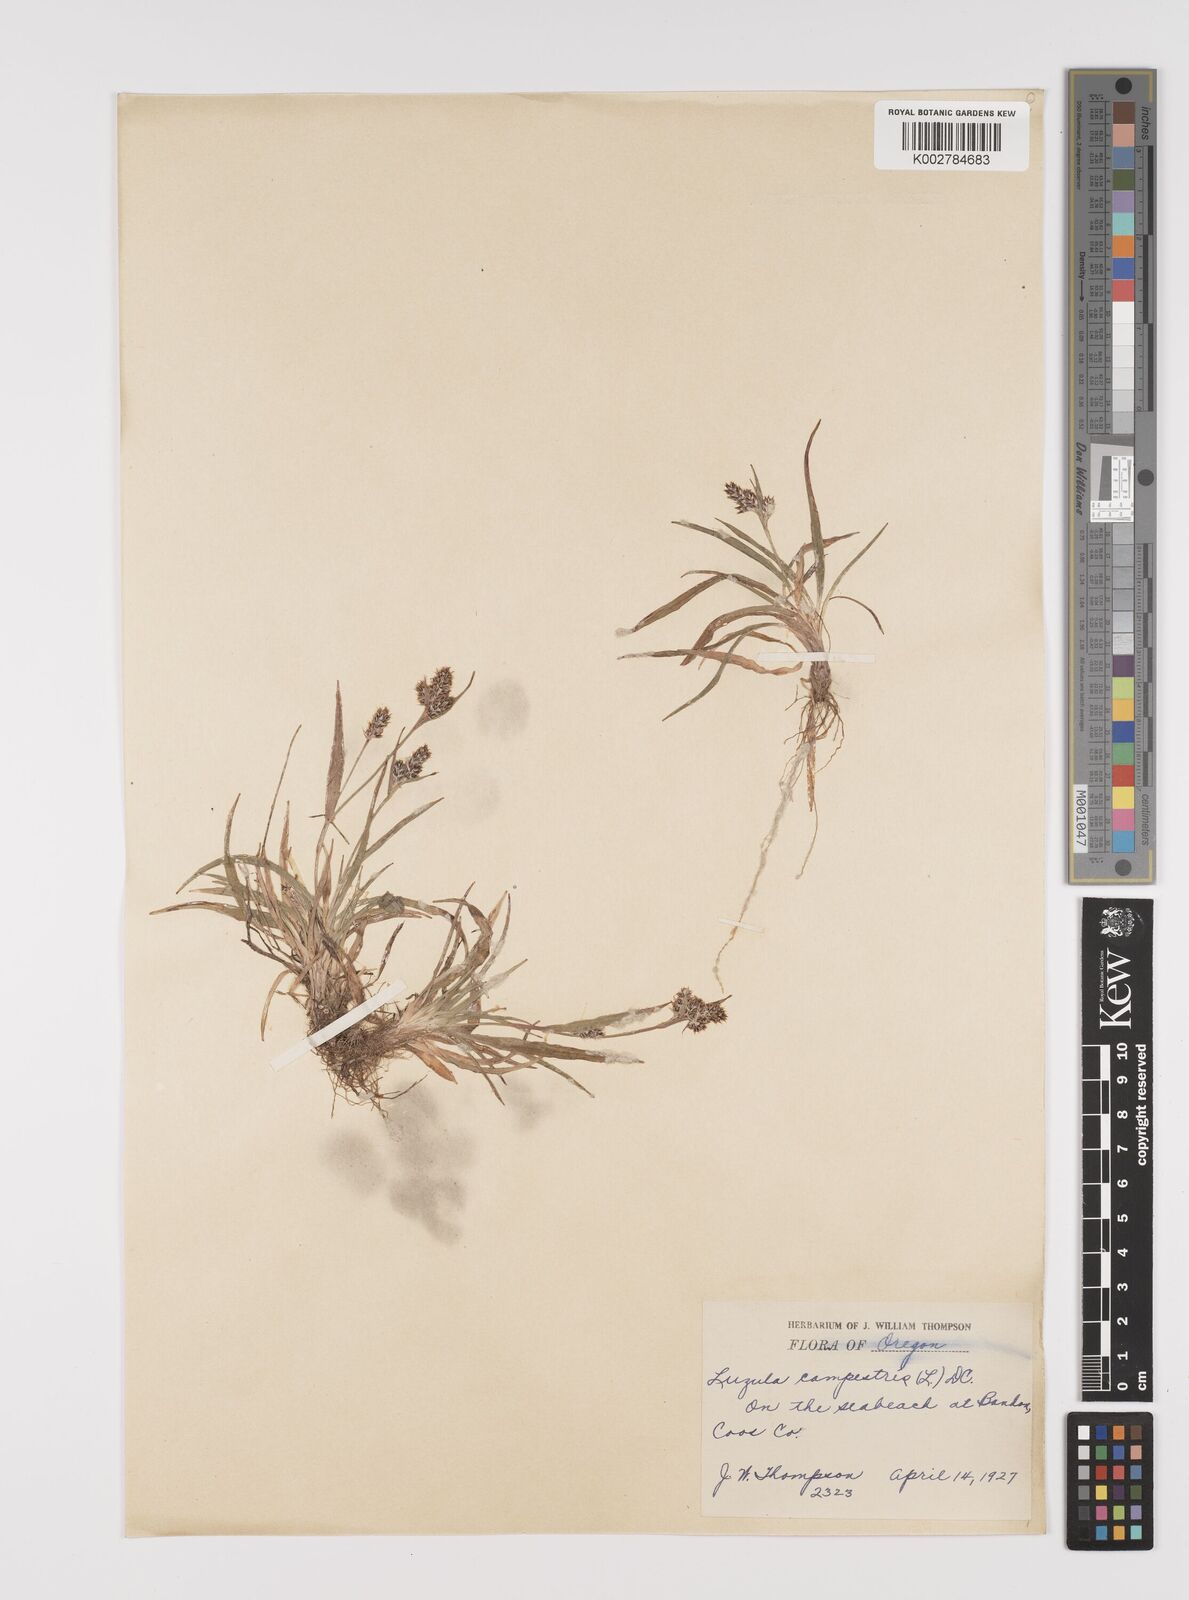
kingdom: Plantae
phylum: Tracheophyta
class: Liliopsida
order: Poales
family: Juncaceae
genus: Luzula
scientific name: Luzula campestris
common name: Field wood-rush
